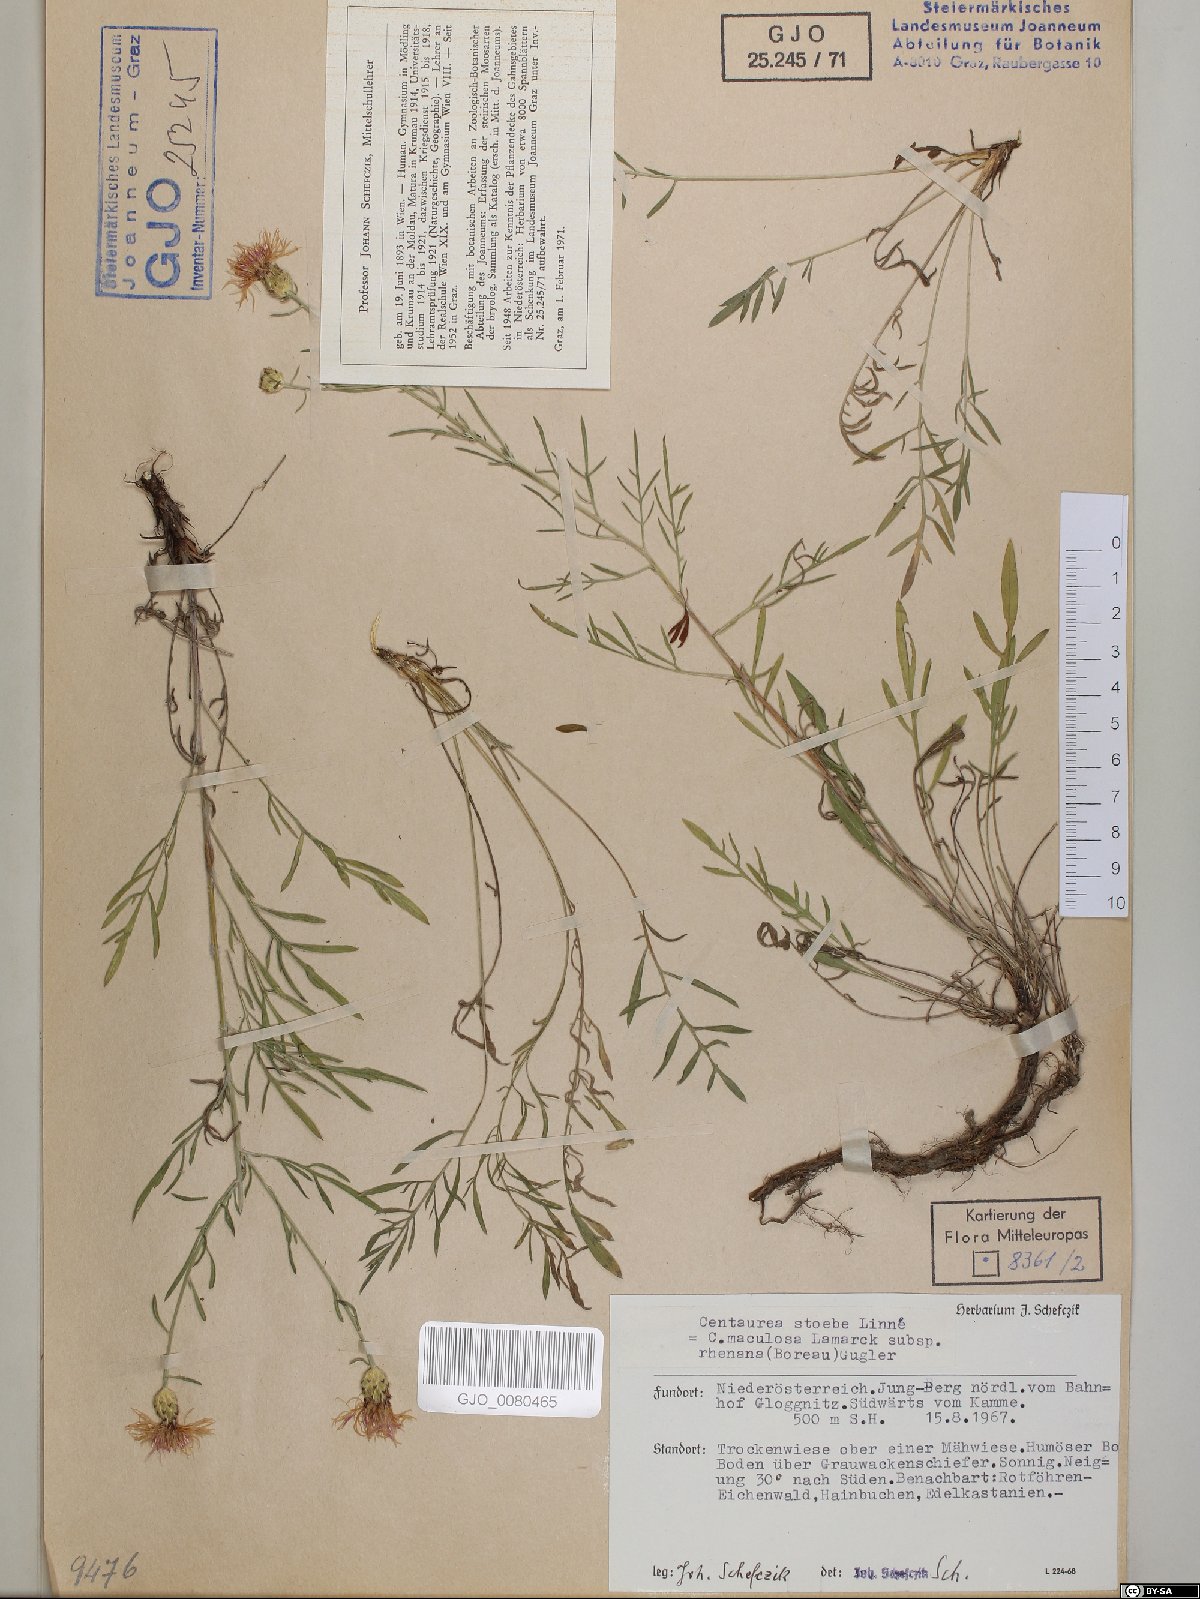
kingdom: Plantae
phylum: Tracheophyta
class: Magnoliopsida
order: Asterales
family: Asteraceae
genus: Centaurea
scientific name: Centaurea stoebe
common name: Spotted knapweed
